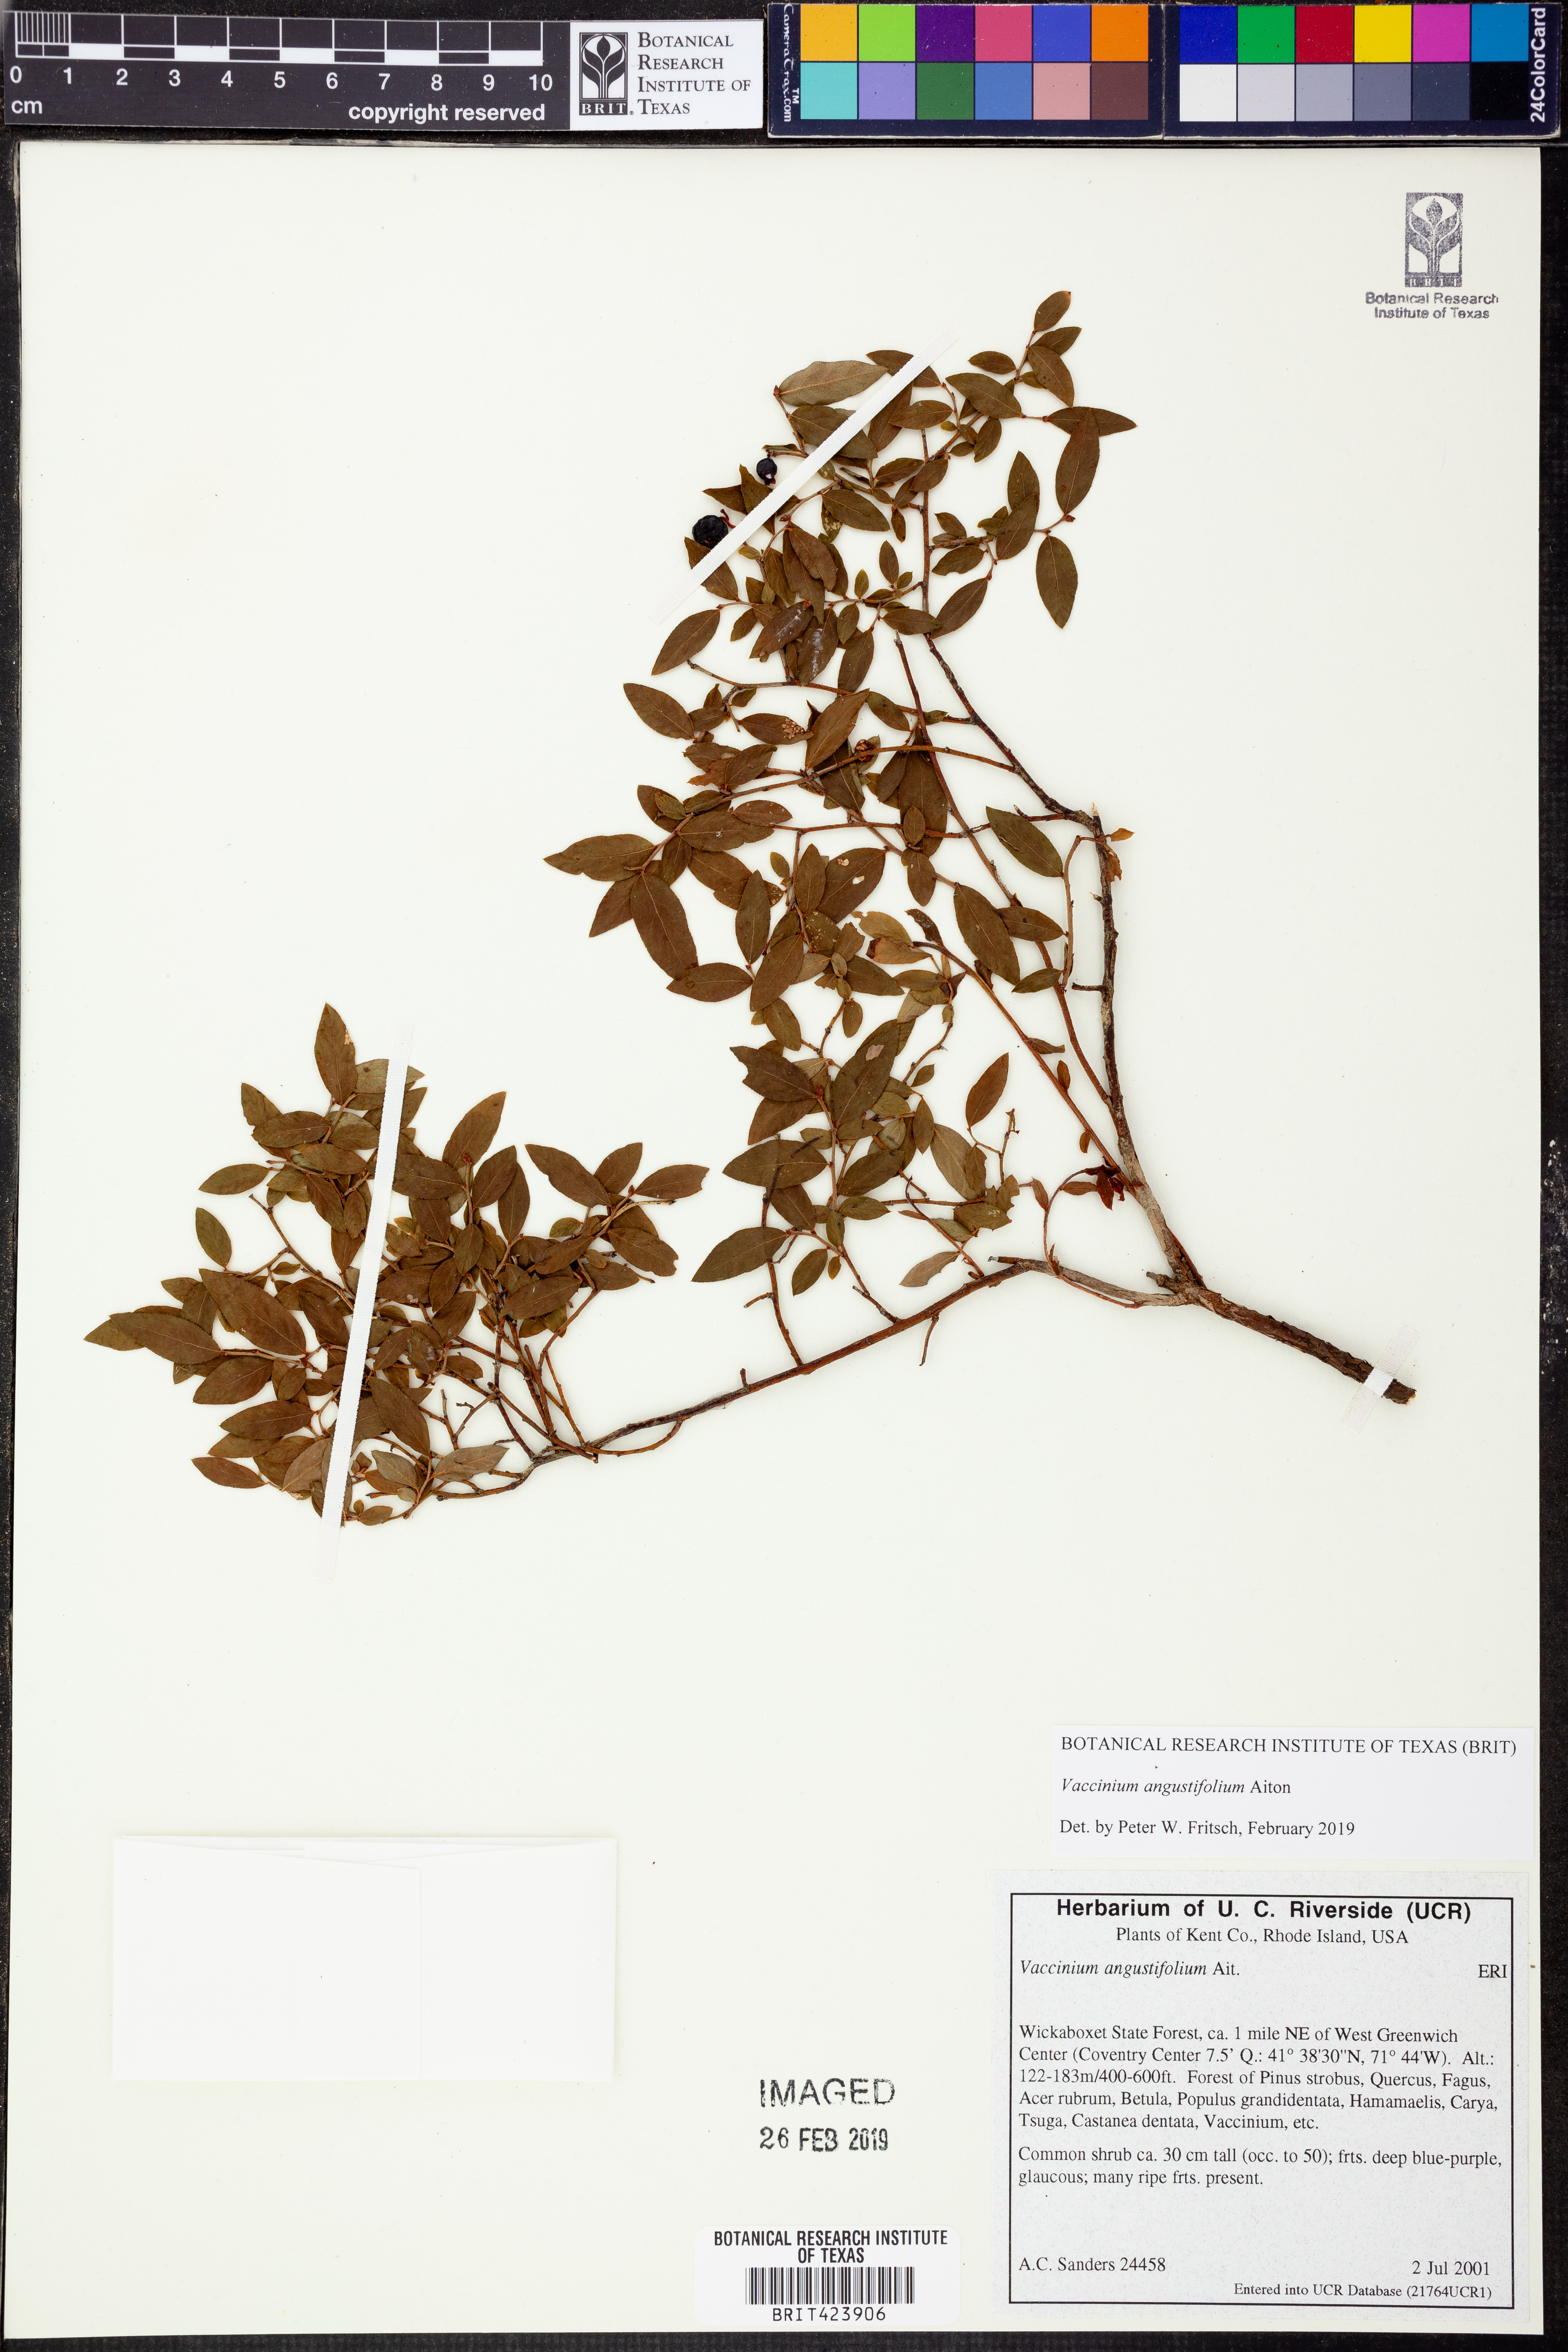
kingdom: Plantae
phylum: Tracheophyta
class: Magnoliopsida
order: Ericales
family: Ericaceae
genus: Vaccinium
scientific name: Vaccinium angustifolium
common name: Early lowbush blueberry
